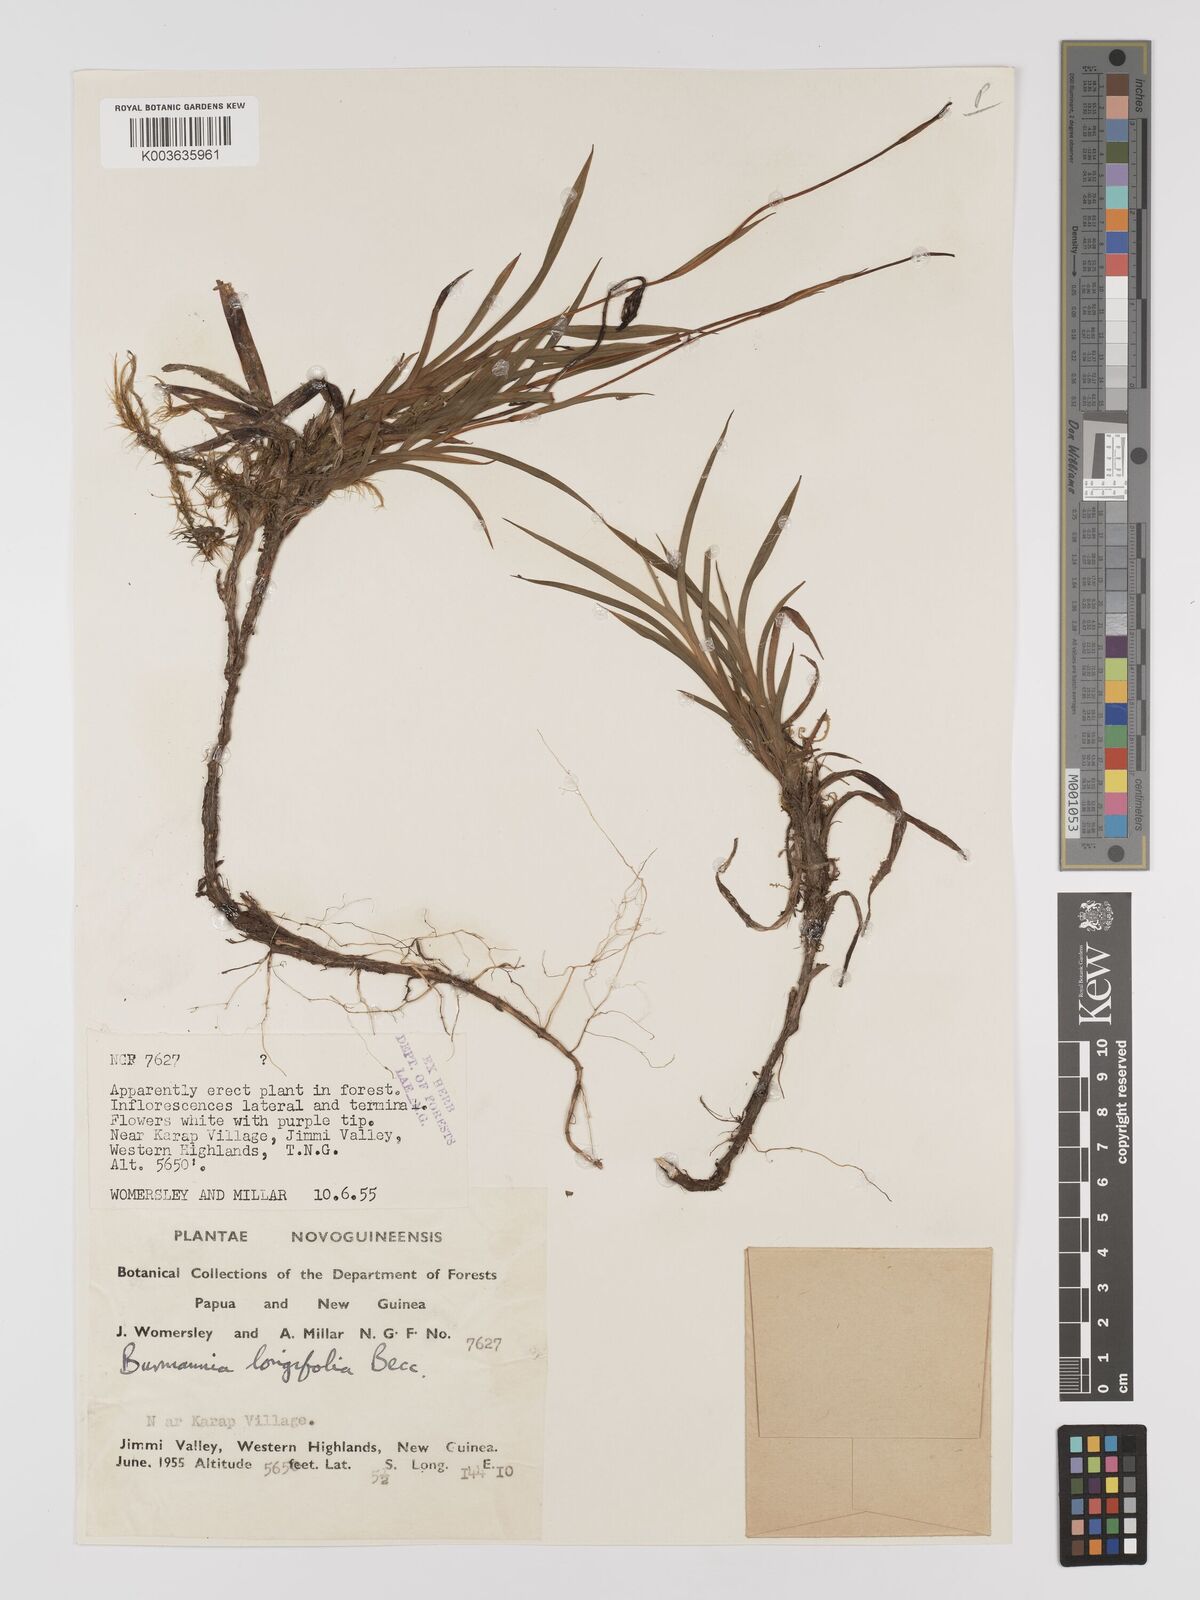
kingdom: Plantae
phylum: Tracheophyta
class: Liliopsida
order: Dioscoreales
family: Burmanniaceae
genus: Burmannia
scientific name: Burmannia longifolia
